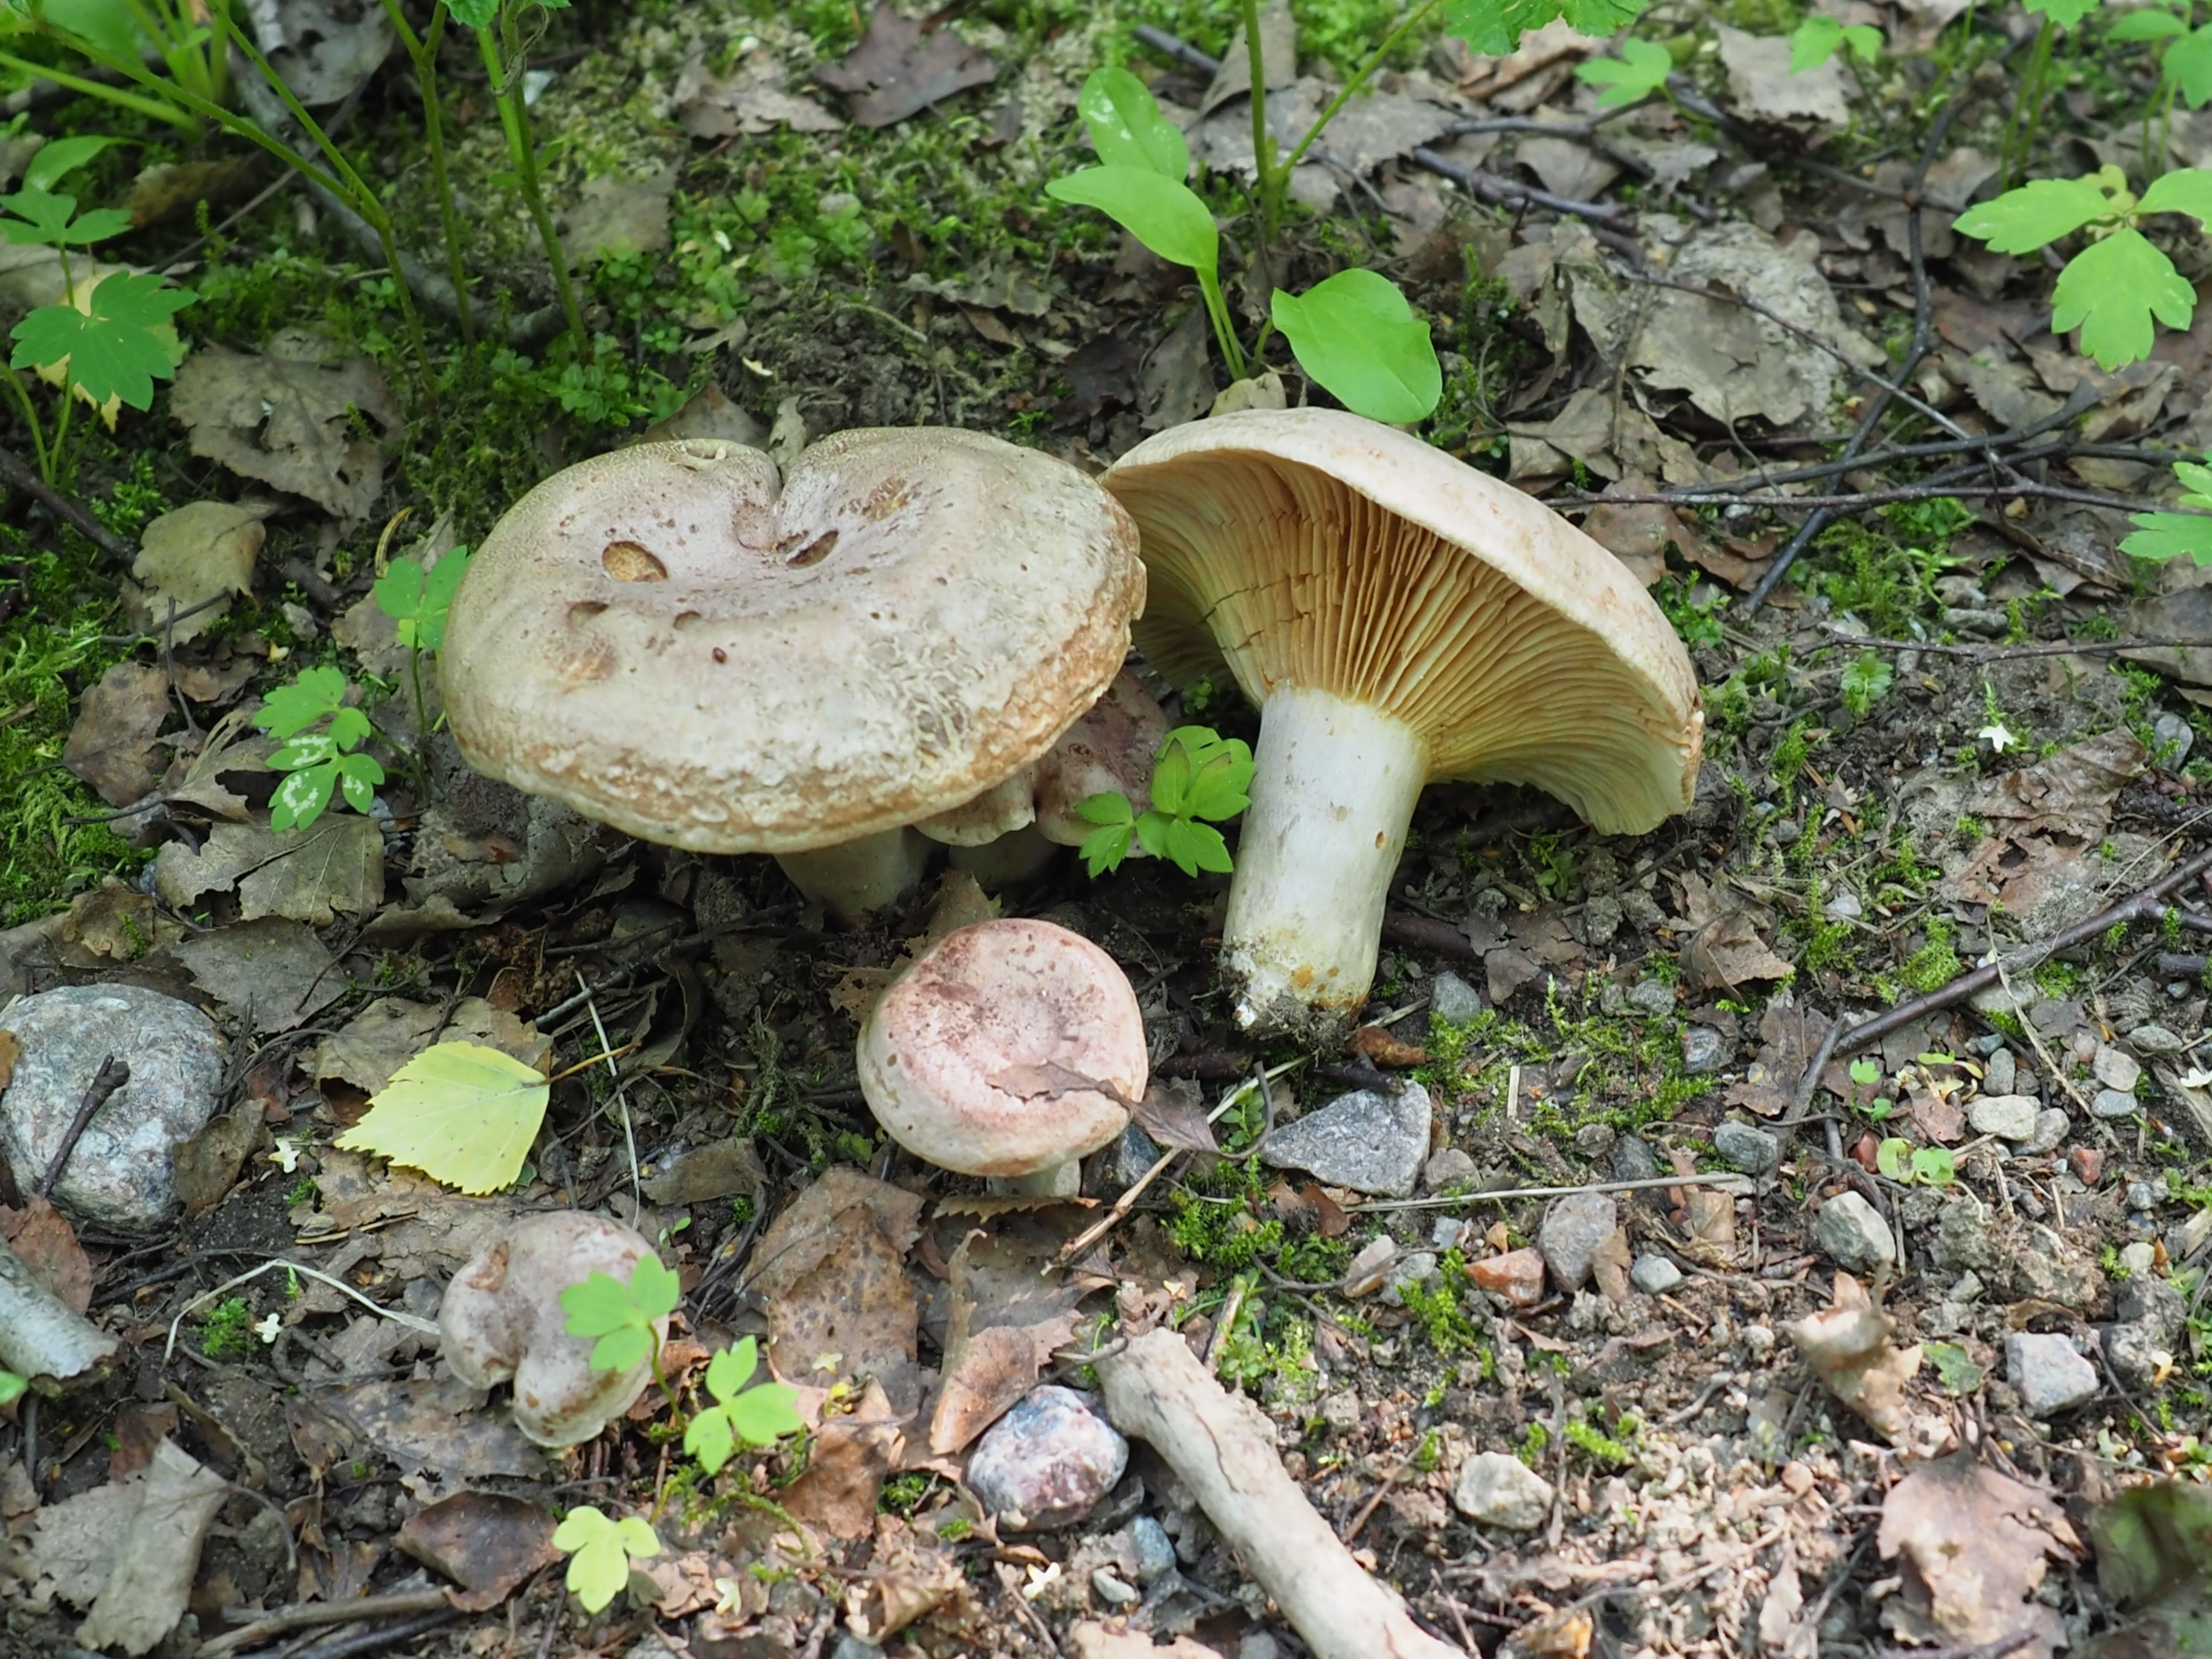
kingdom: Fungi
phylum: Basidiomycota
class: Agaricomycetes
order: Russulales
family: Russulaceae
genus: Lactarius
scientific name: Lactarius flexuosus
